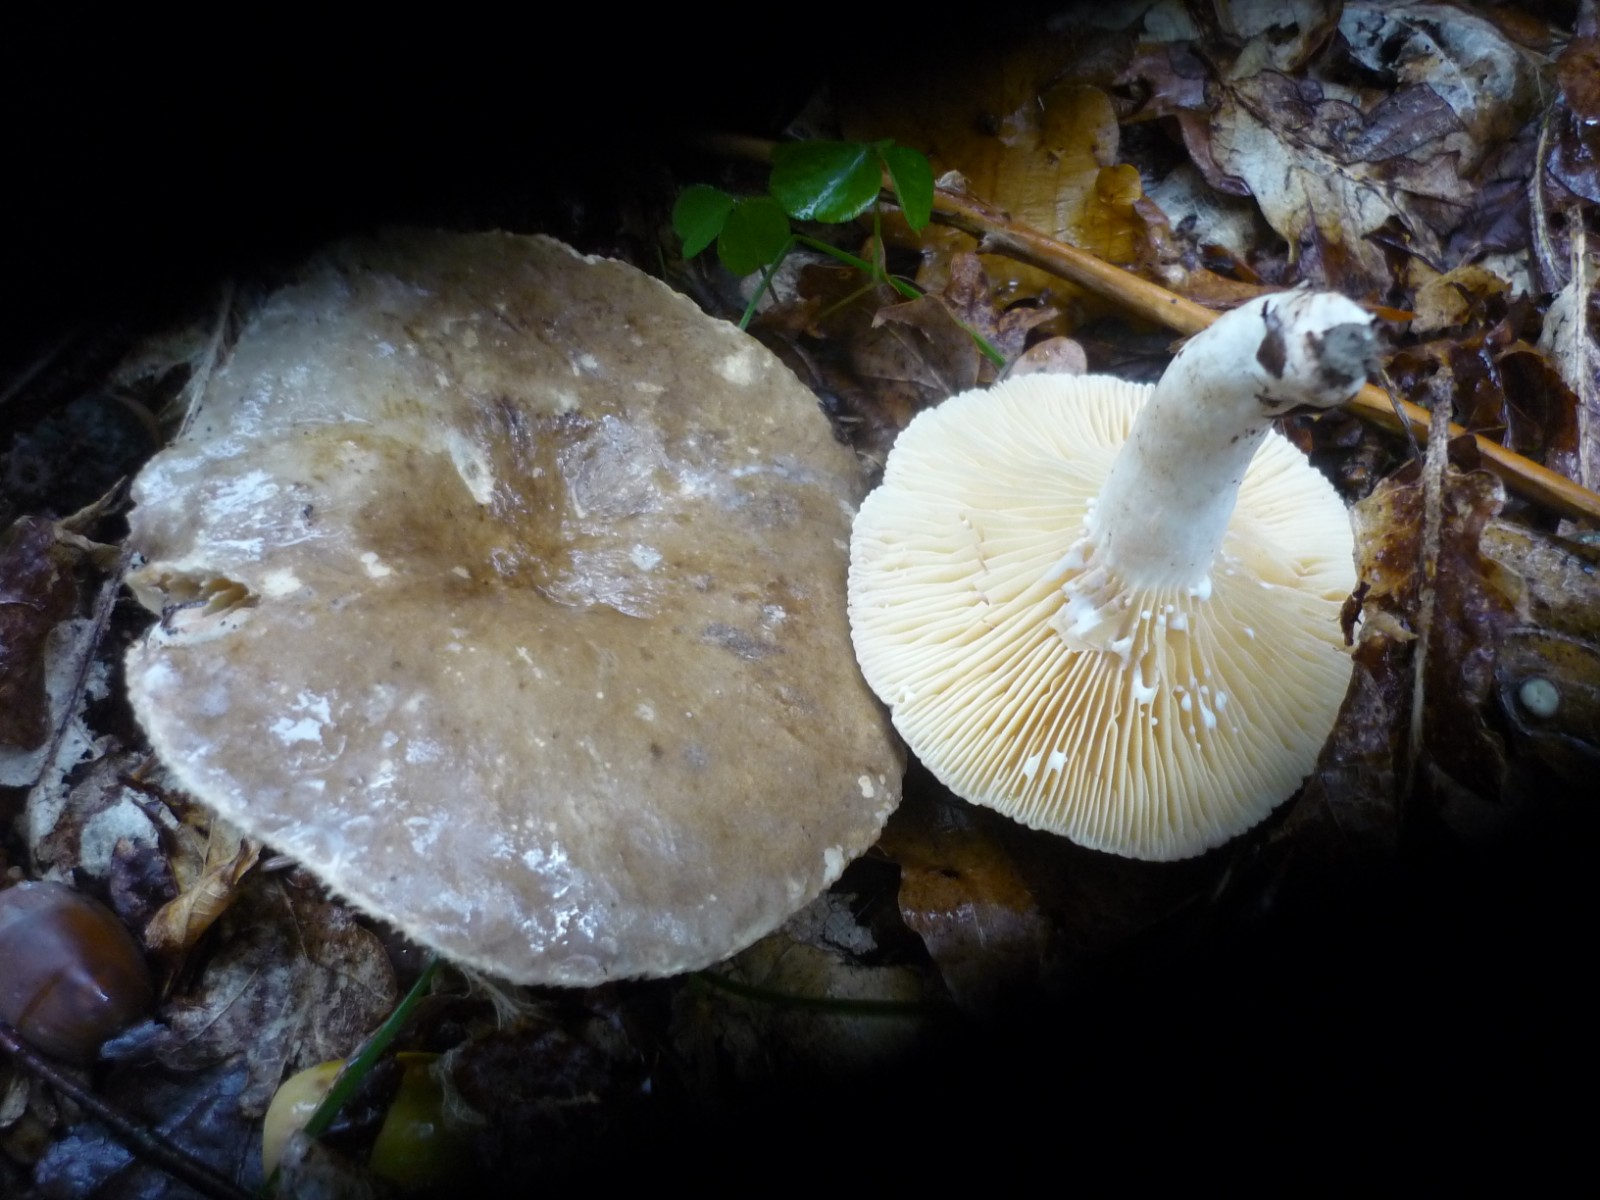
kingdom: Fungi
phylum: Basidiomycota
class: Agaricomycetes
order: Russulales
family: Russulaceae
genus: Lactarius
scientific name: Lactarius ruginosus
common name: gråbrun mælkehat
